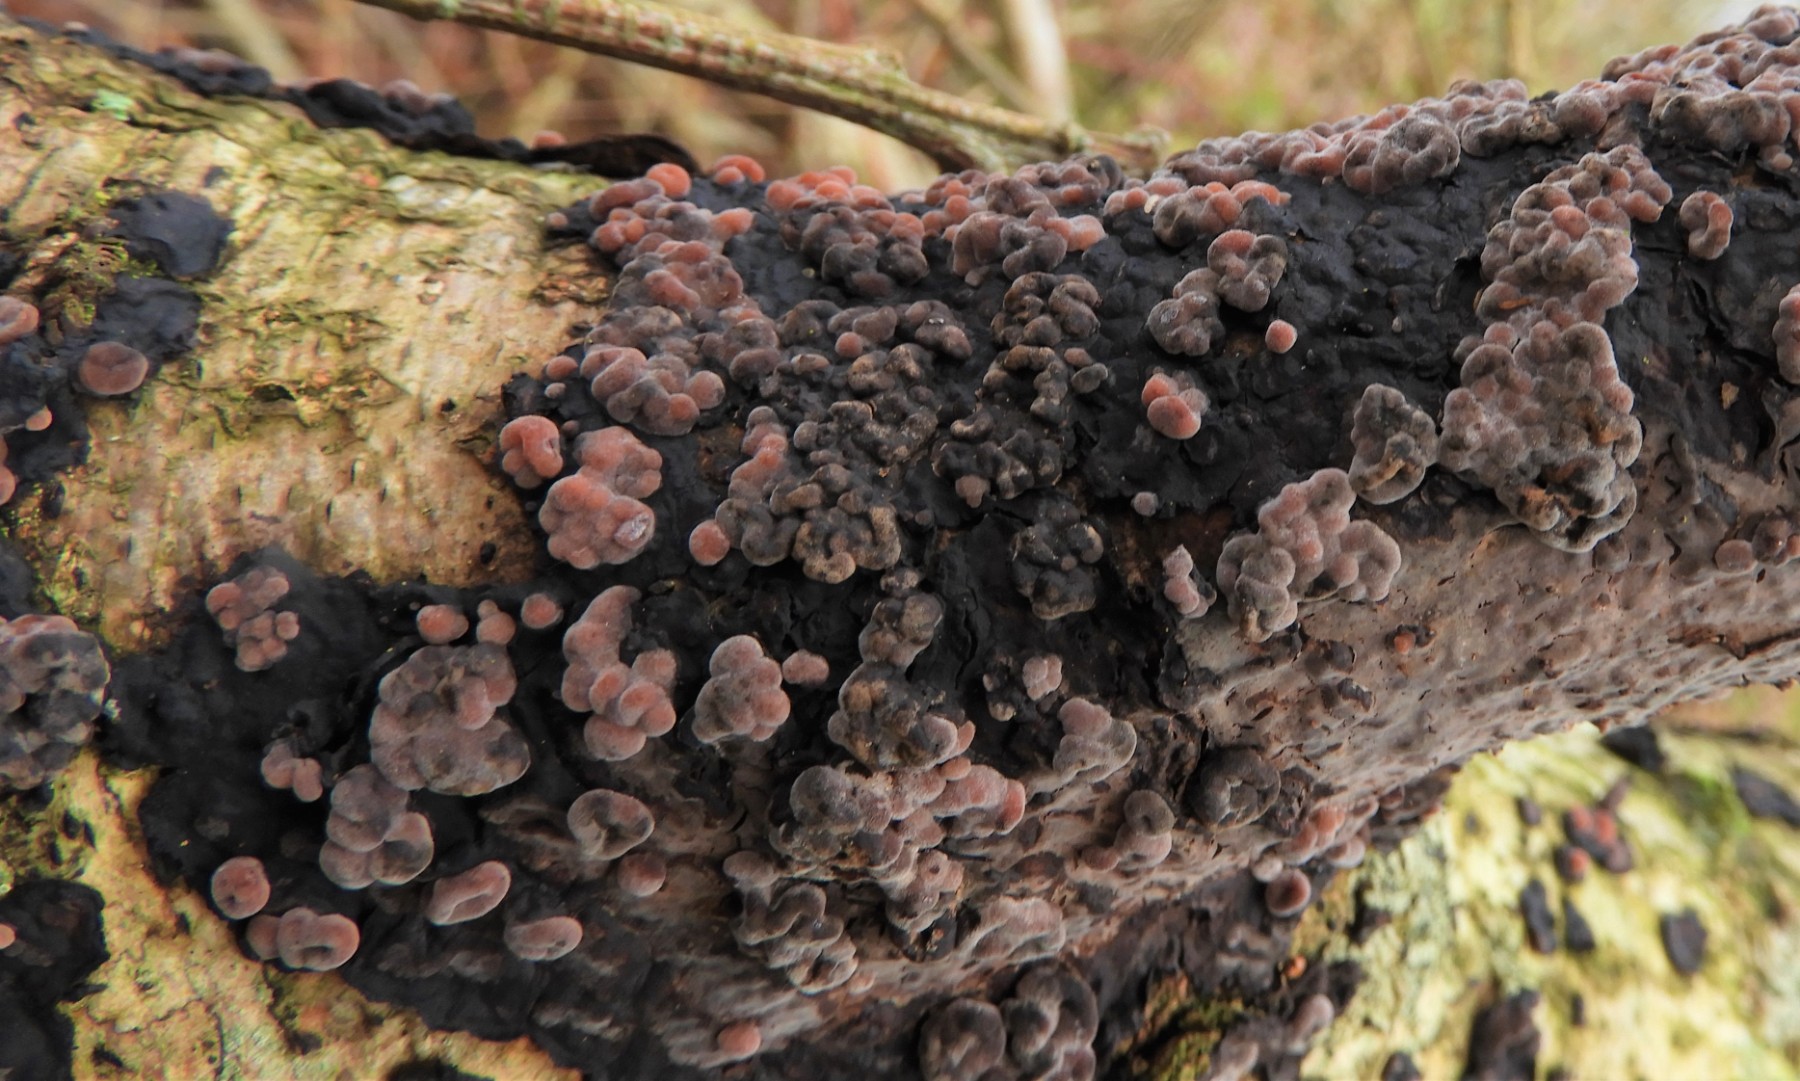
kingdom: Fungi
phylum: Basidiomycota
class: Agaricomycetes
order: Russulales
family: Peniophoraceae
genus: Peniophora
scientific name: Peniophora quercina
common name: ege-voksskind
